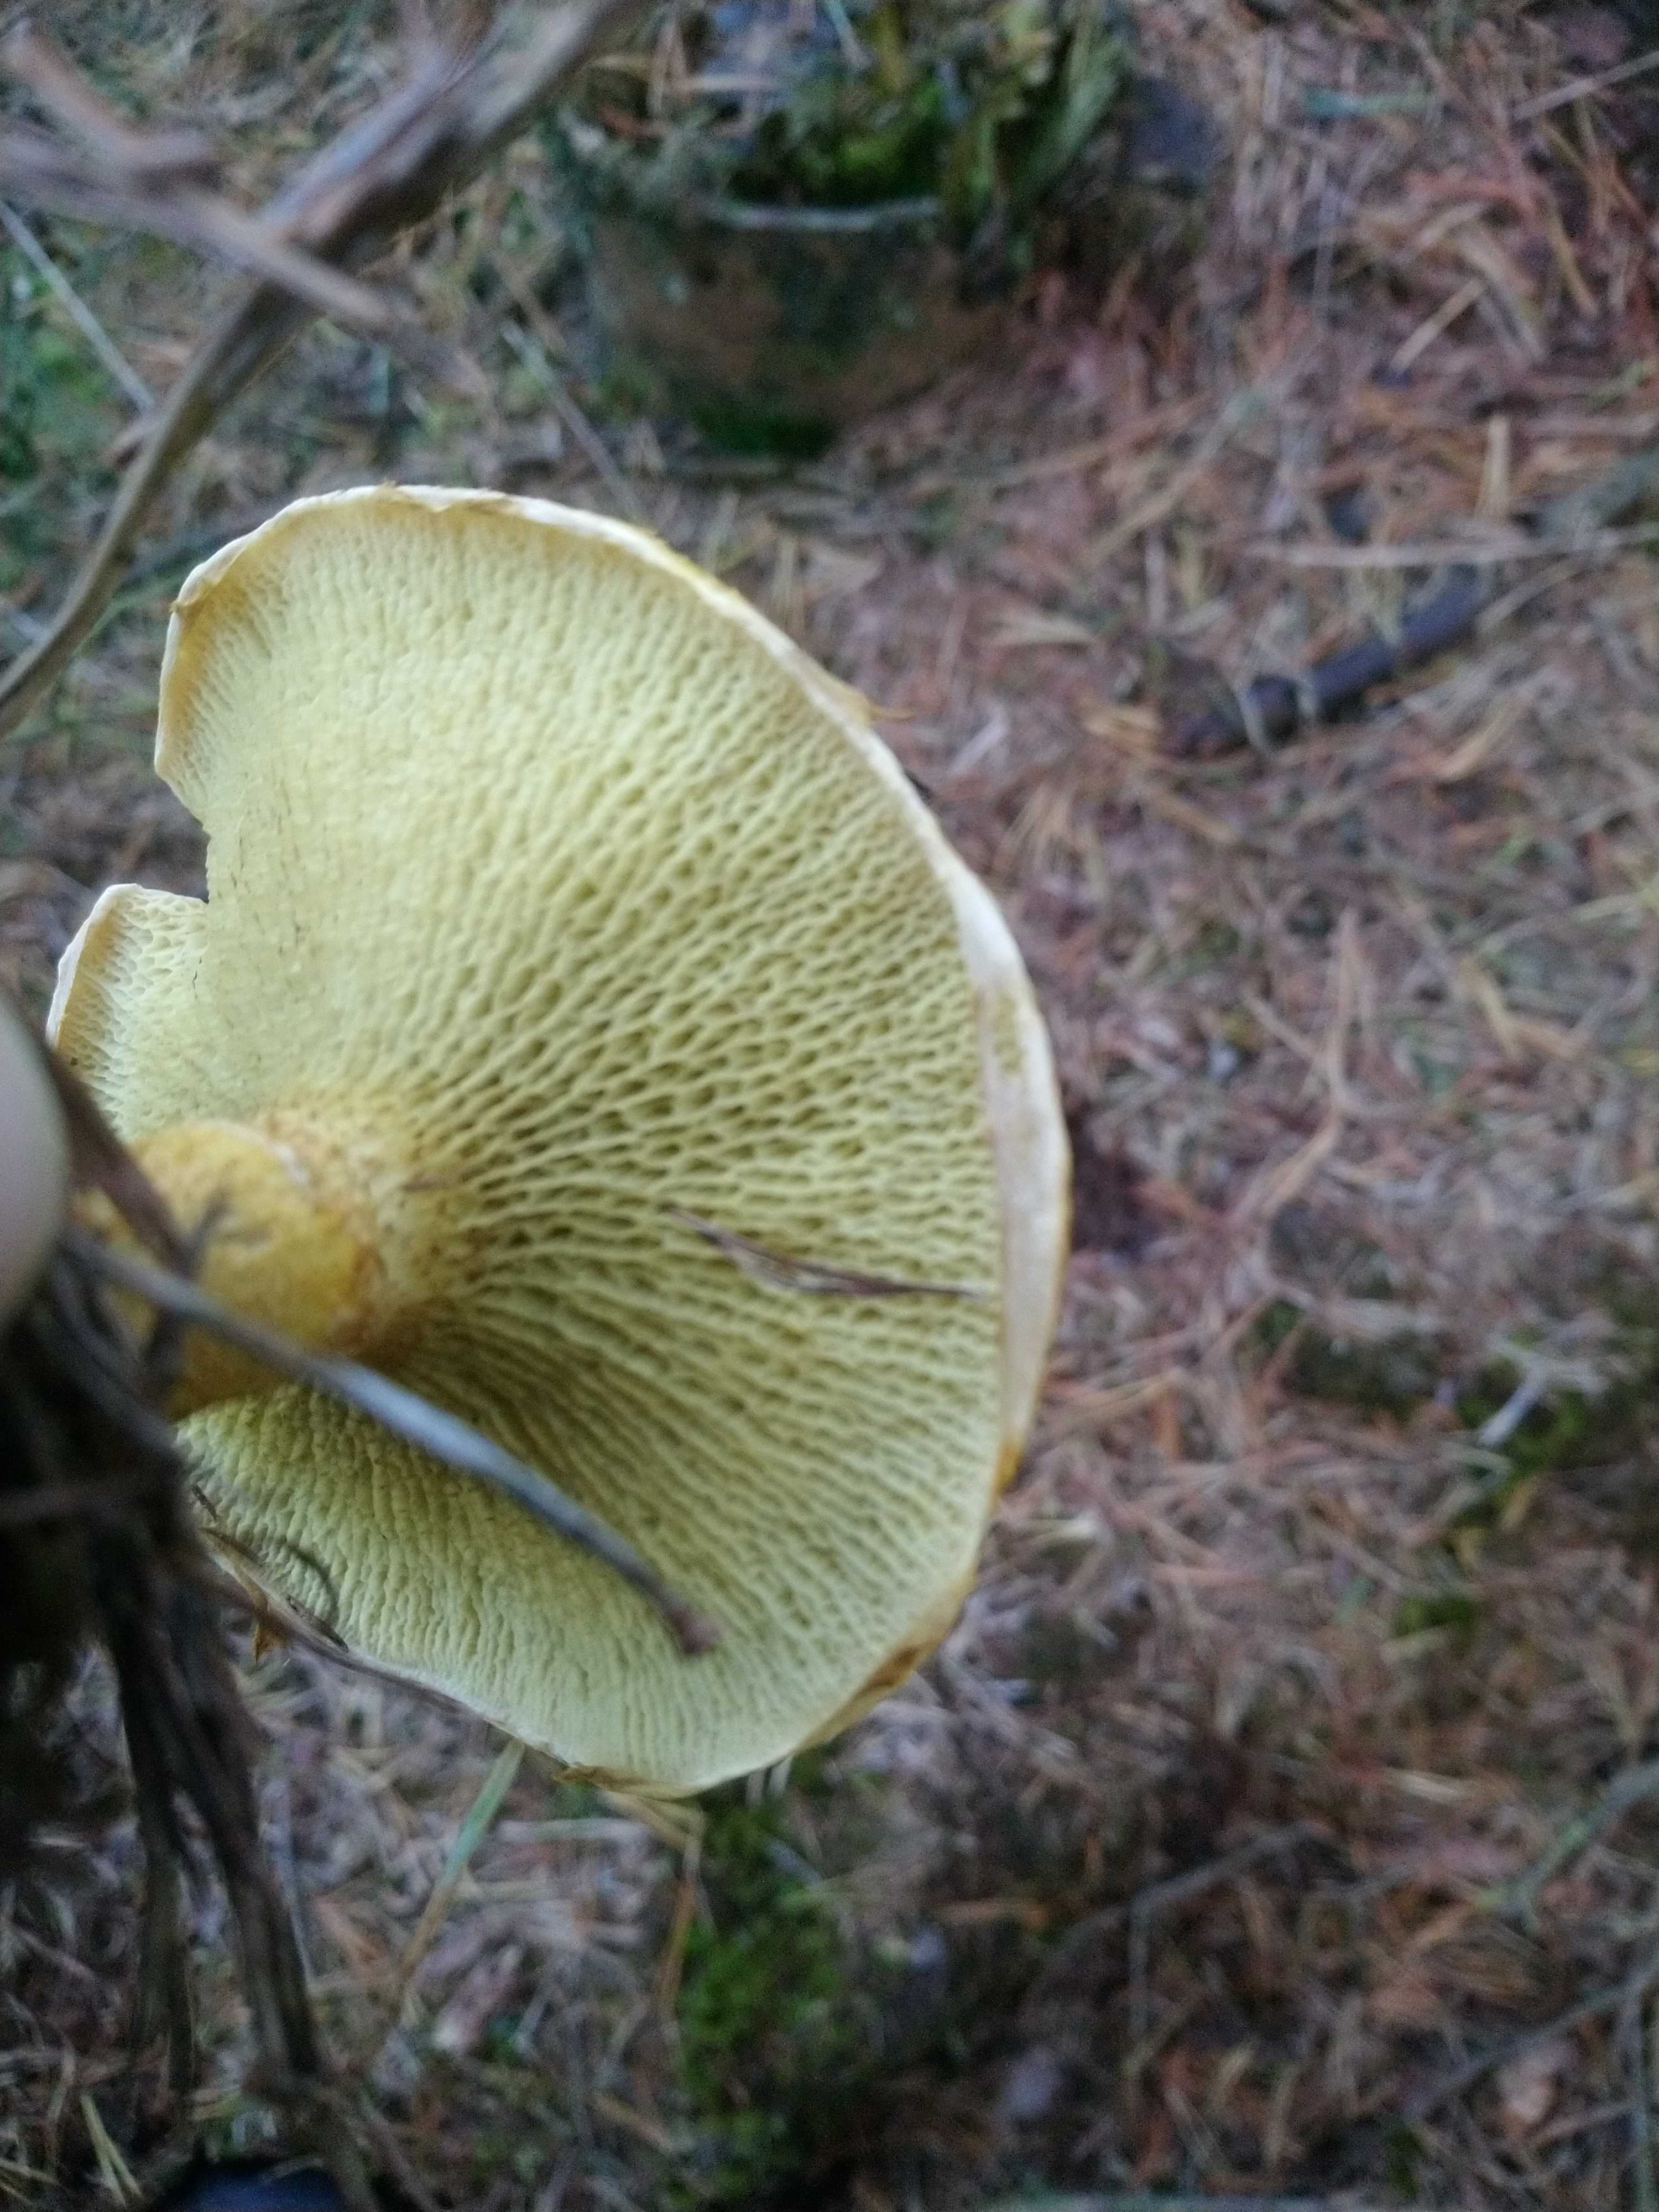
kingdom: Fungi
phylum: Basidiomycota
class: Agaricomycetes
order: Boletales
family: Suillaceae
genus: Suillus
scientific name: Suillus cavipes
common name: hulstokket slimrørhat, gul form
